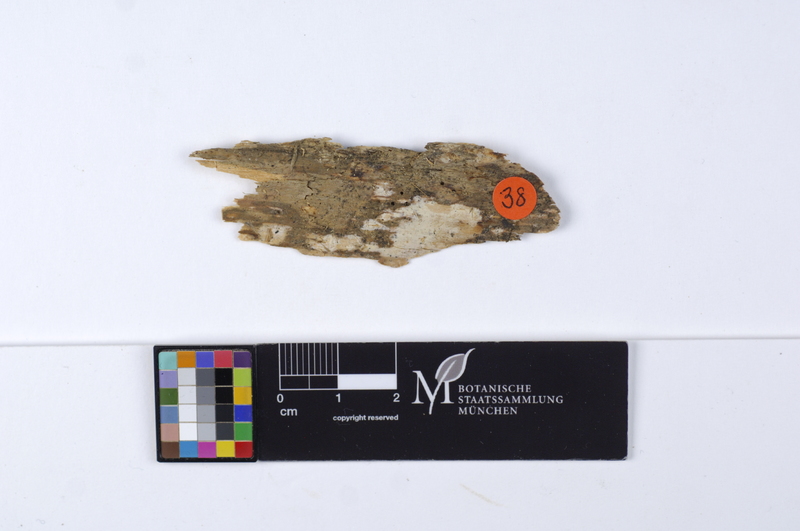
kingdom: Plantae
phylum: Tracheophyta
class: Pinopsida
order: Pinales
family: Pinaceae
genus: Larix
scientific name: Larix
